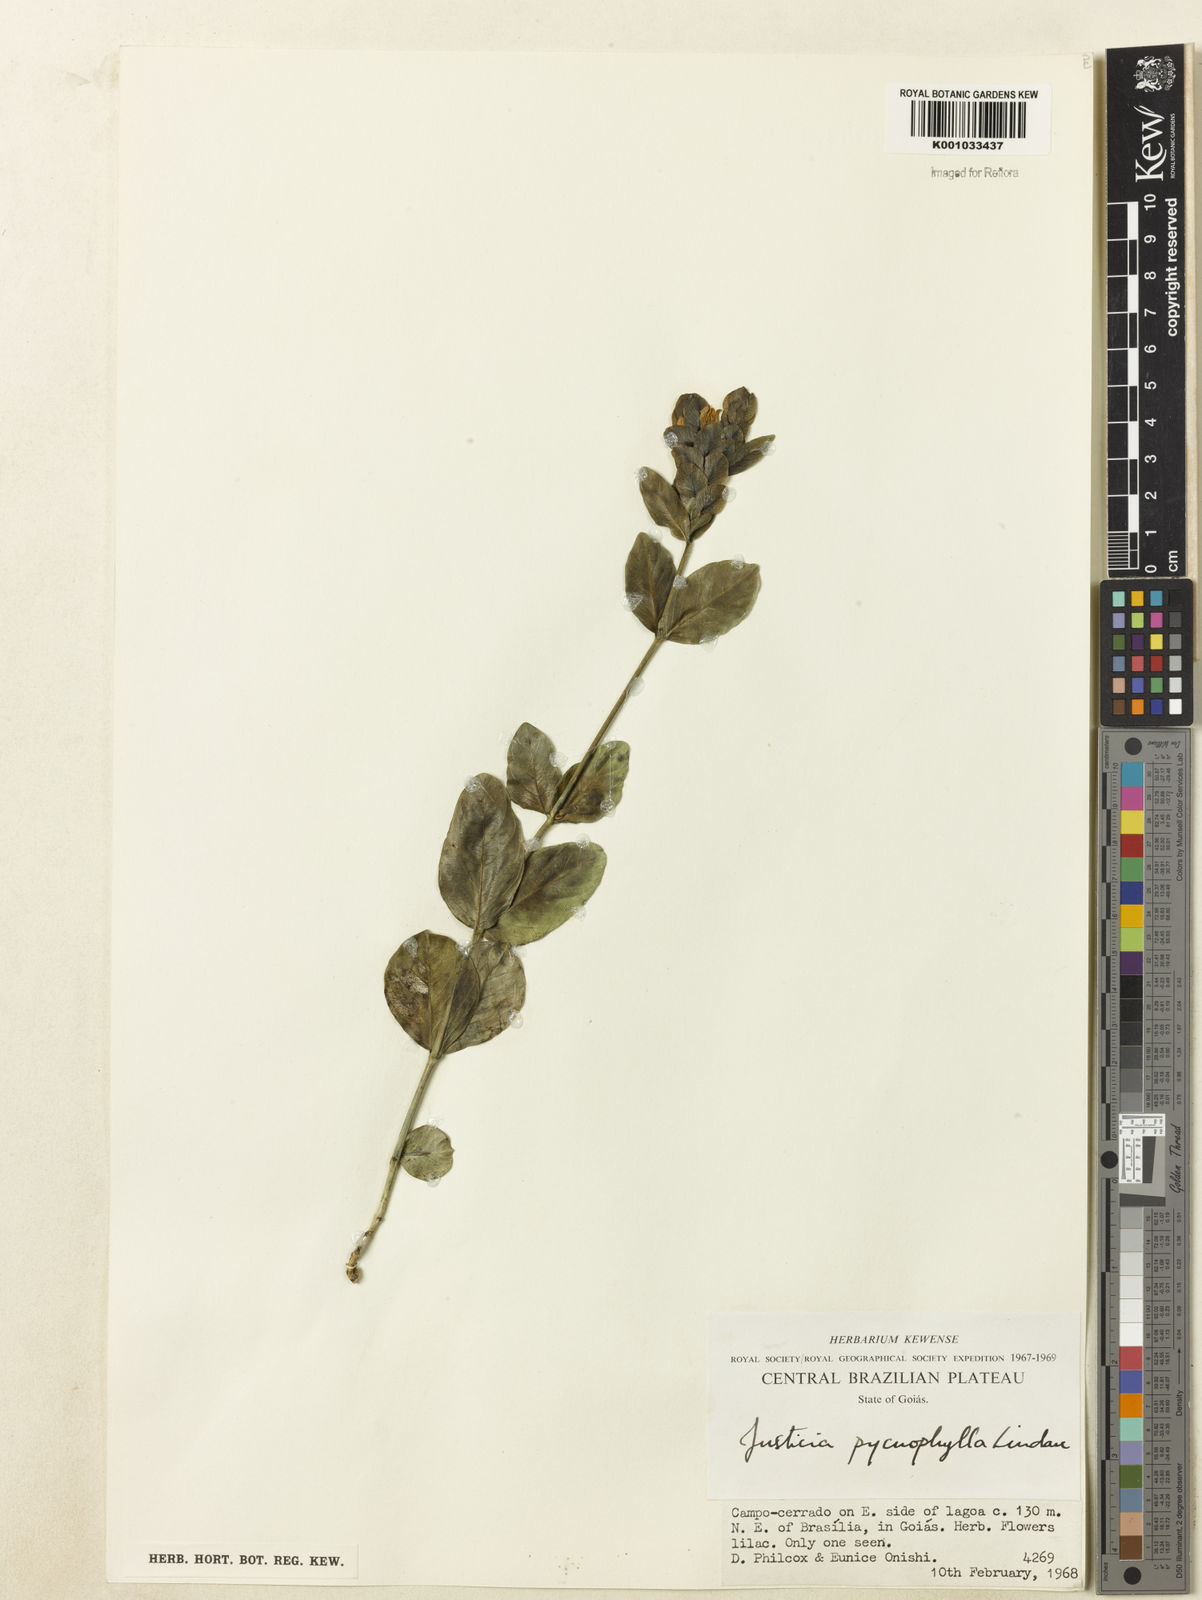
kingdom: Plantae
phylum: Tracheophyta
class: Magnoliopsida
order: Lamiales
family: Acanthaceae
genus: Justicia
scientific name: Justicia pycnophylla
